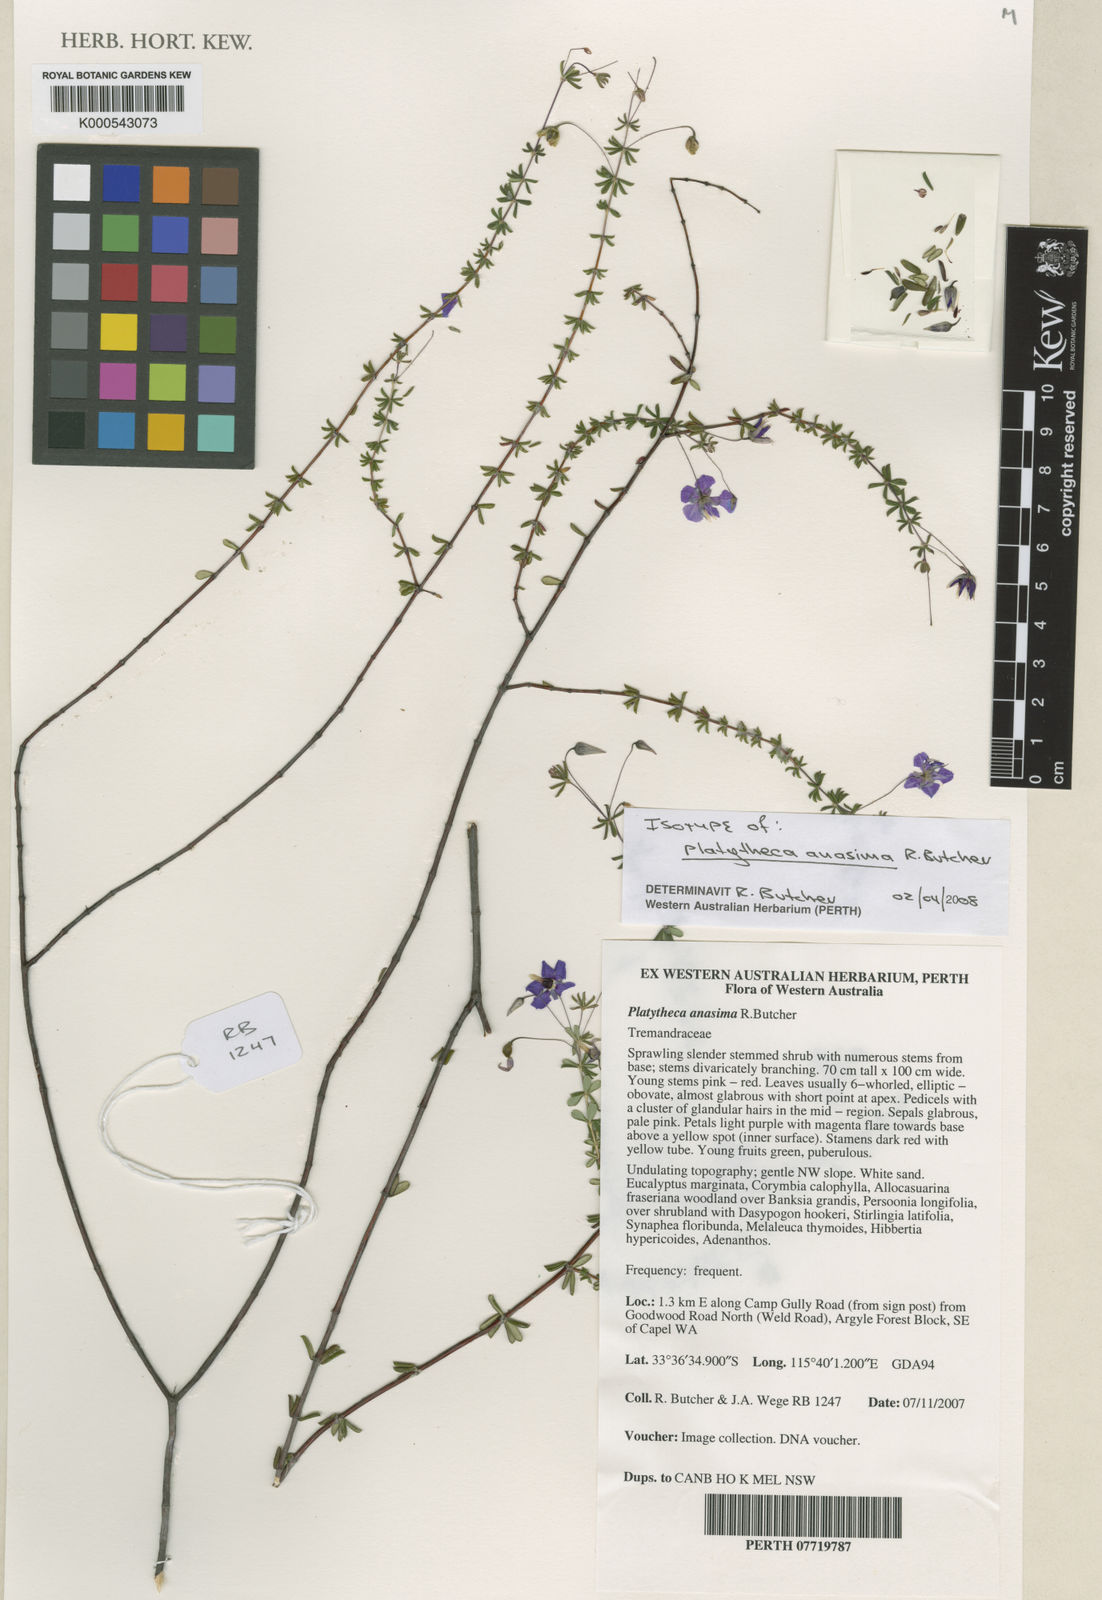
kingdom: Plantae
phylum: Tracheophyta
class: Magnoliopsida
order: Oxalidales
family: Elaeocarpaceae
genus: Platytheca
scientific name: Platytheca anasima
